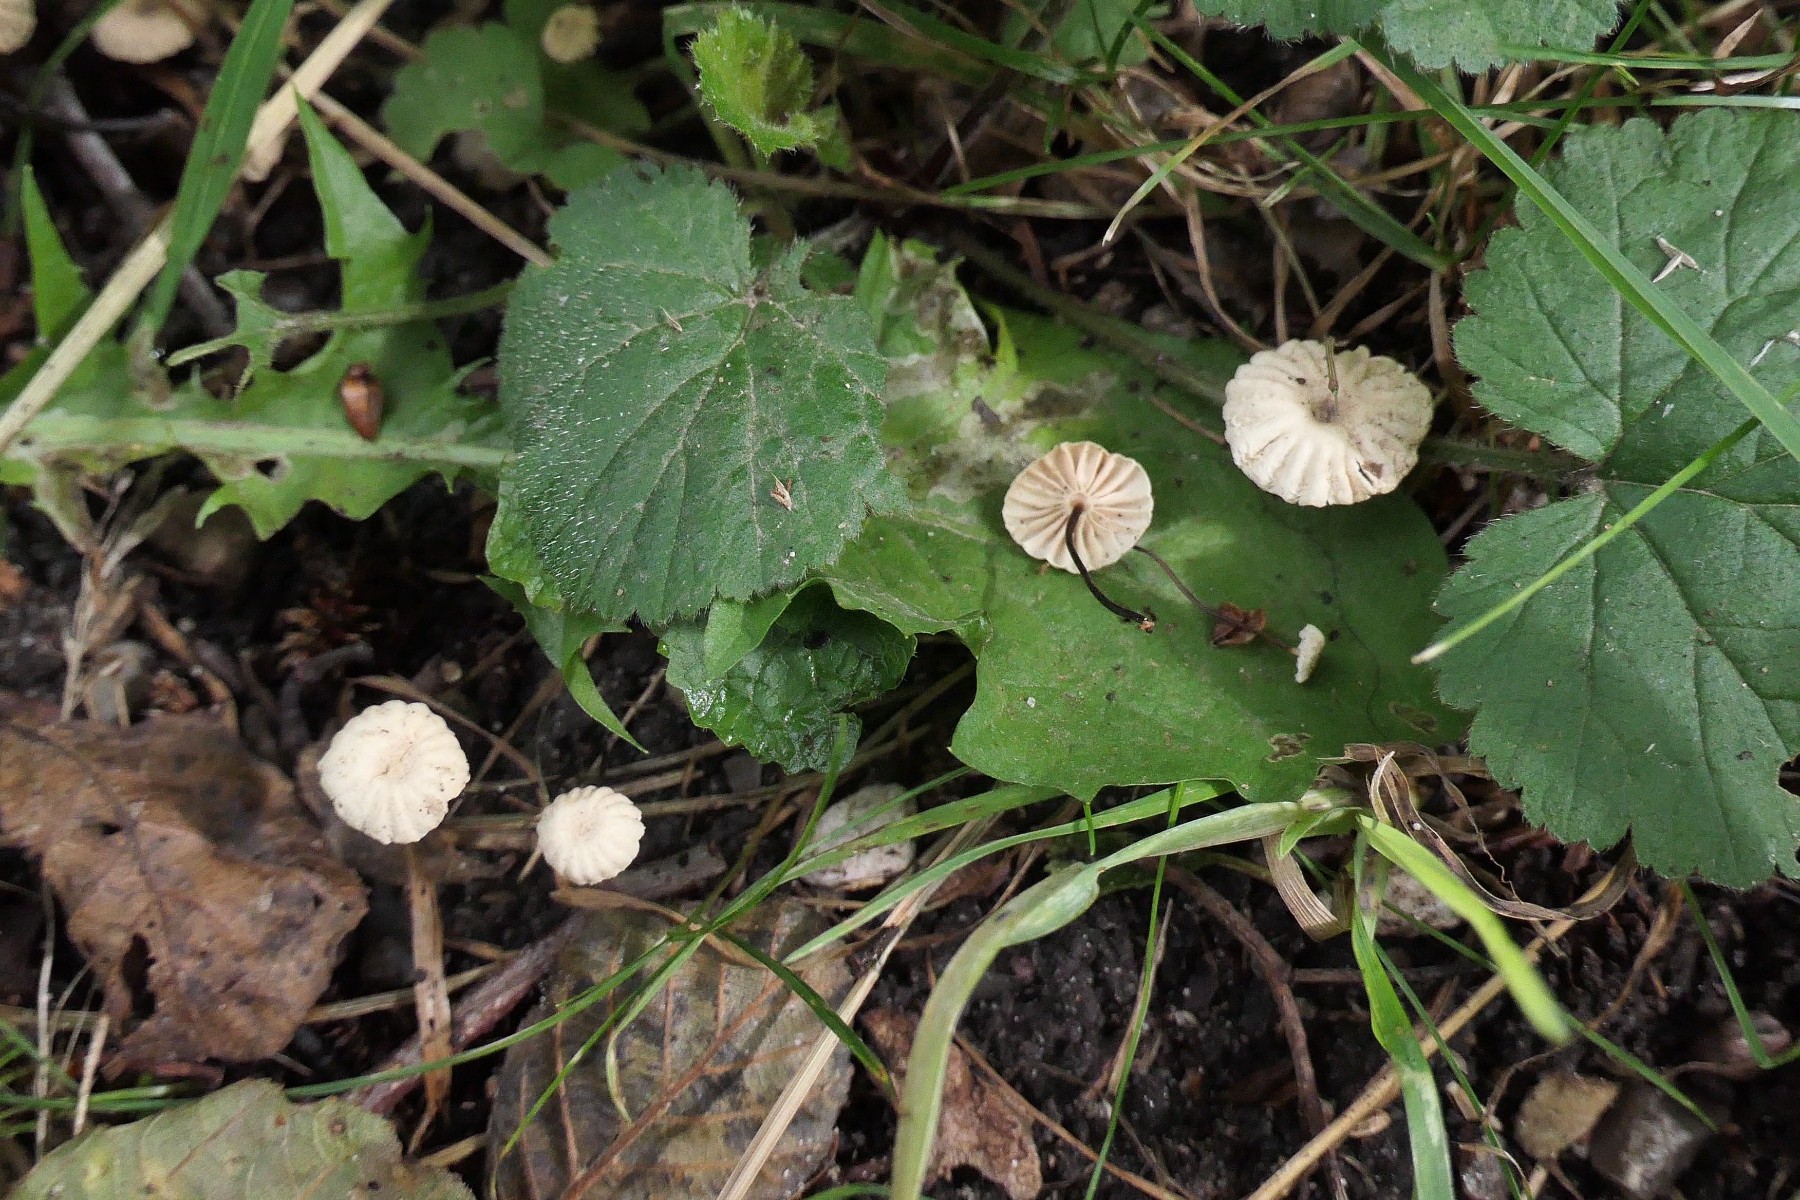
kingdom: Fungi
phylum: Basidiomycota
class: Agaricomycetes
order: Agaricales
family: Marasmiaceae
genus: Marasmius
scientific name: Marasmius rotula
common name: hjul-bruskhat
